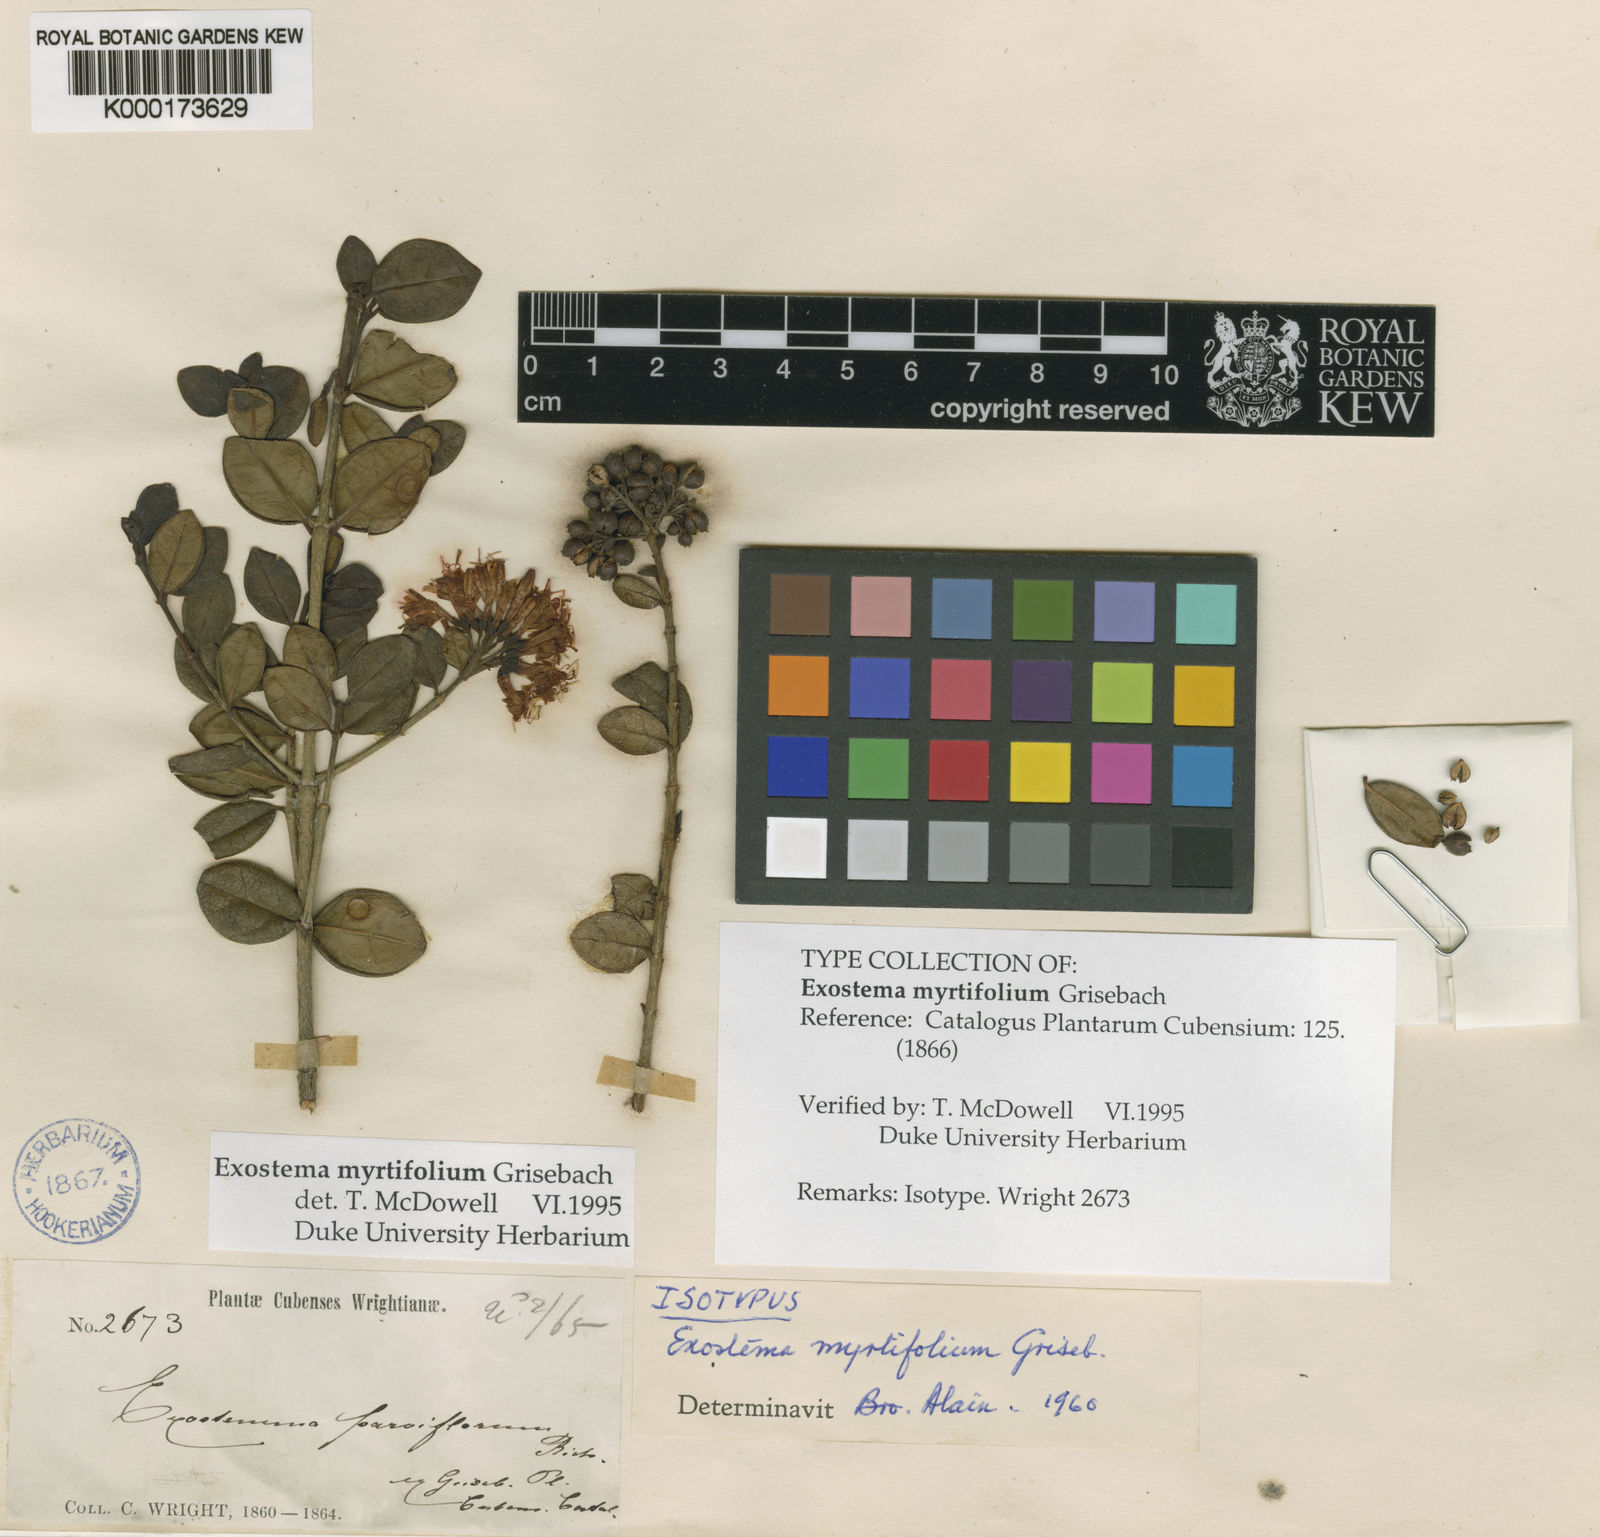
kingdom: Plantae
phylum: Tracheophyta
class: Magnoliopsida
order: Gentianales
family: Rubiaceae
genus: Solenandra
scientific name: Solenandra myrtifolia
